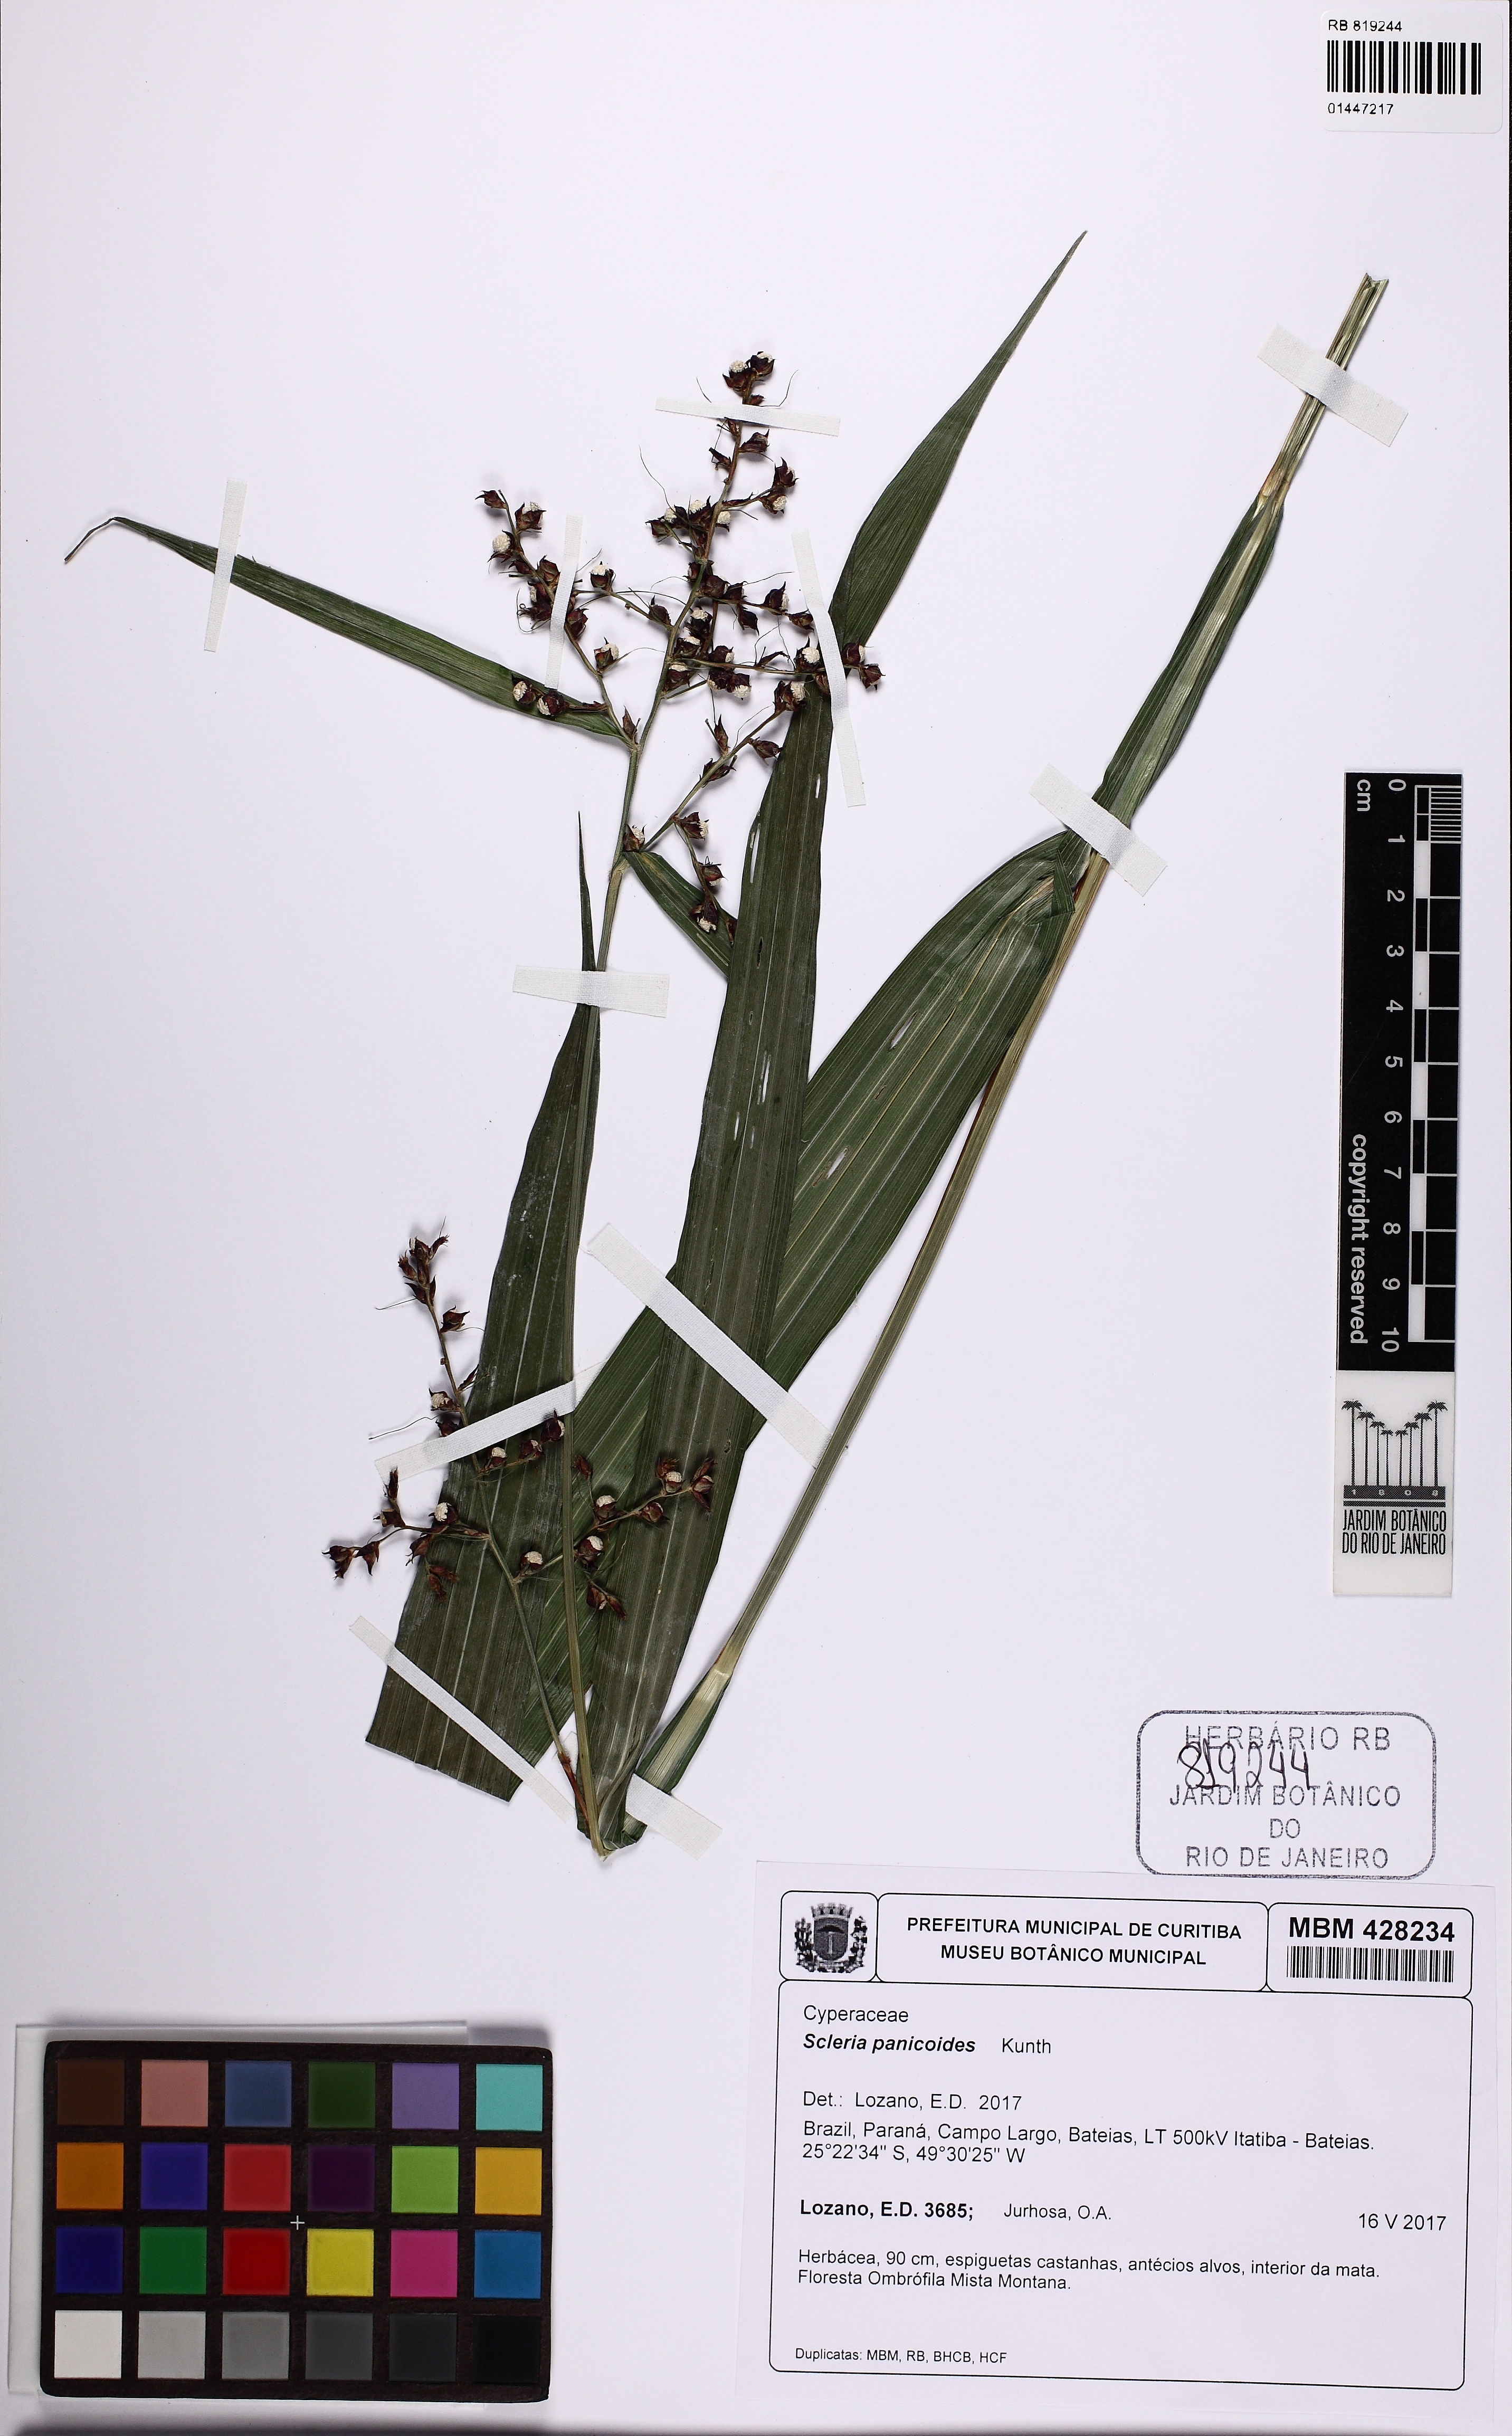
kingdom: Plantae
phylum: Tracheophyta
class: Liliopsida
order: Poales
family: Cyperaceae
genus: Scleria
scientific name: Scleria panicoides
